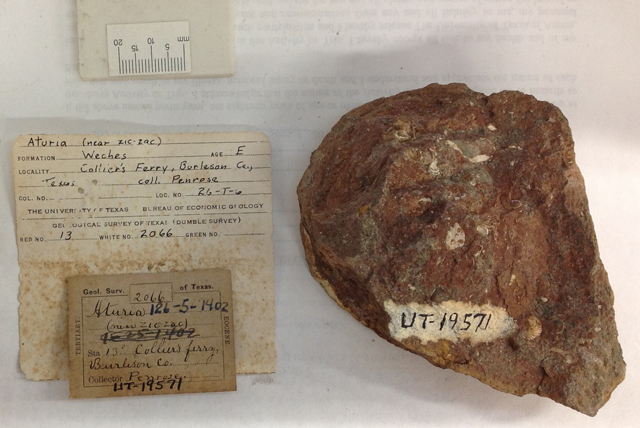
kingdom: Animalia
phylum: Mollusca
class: Cephalopoda
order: Nautilida
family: Aturiidae
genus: Aturia
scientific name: Aturia
